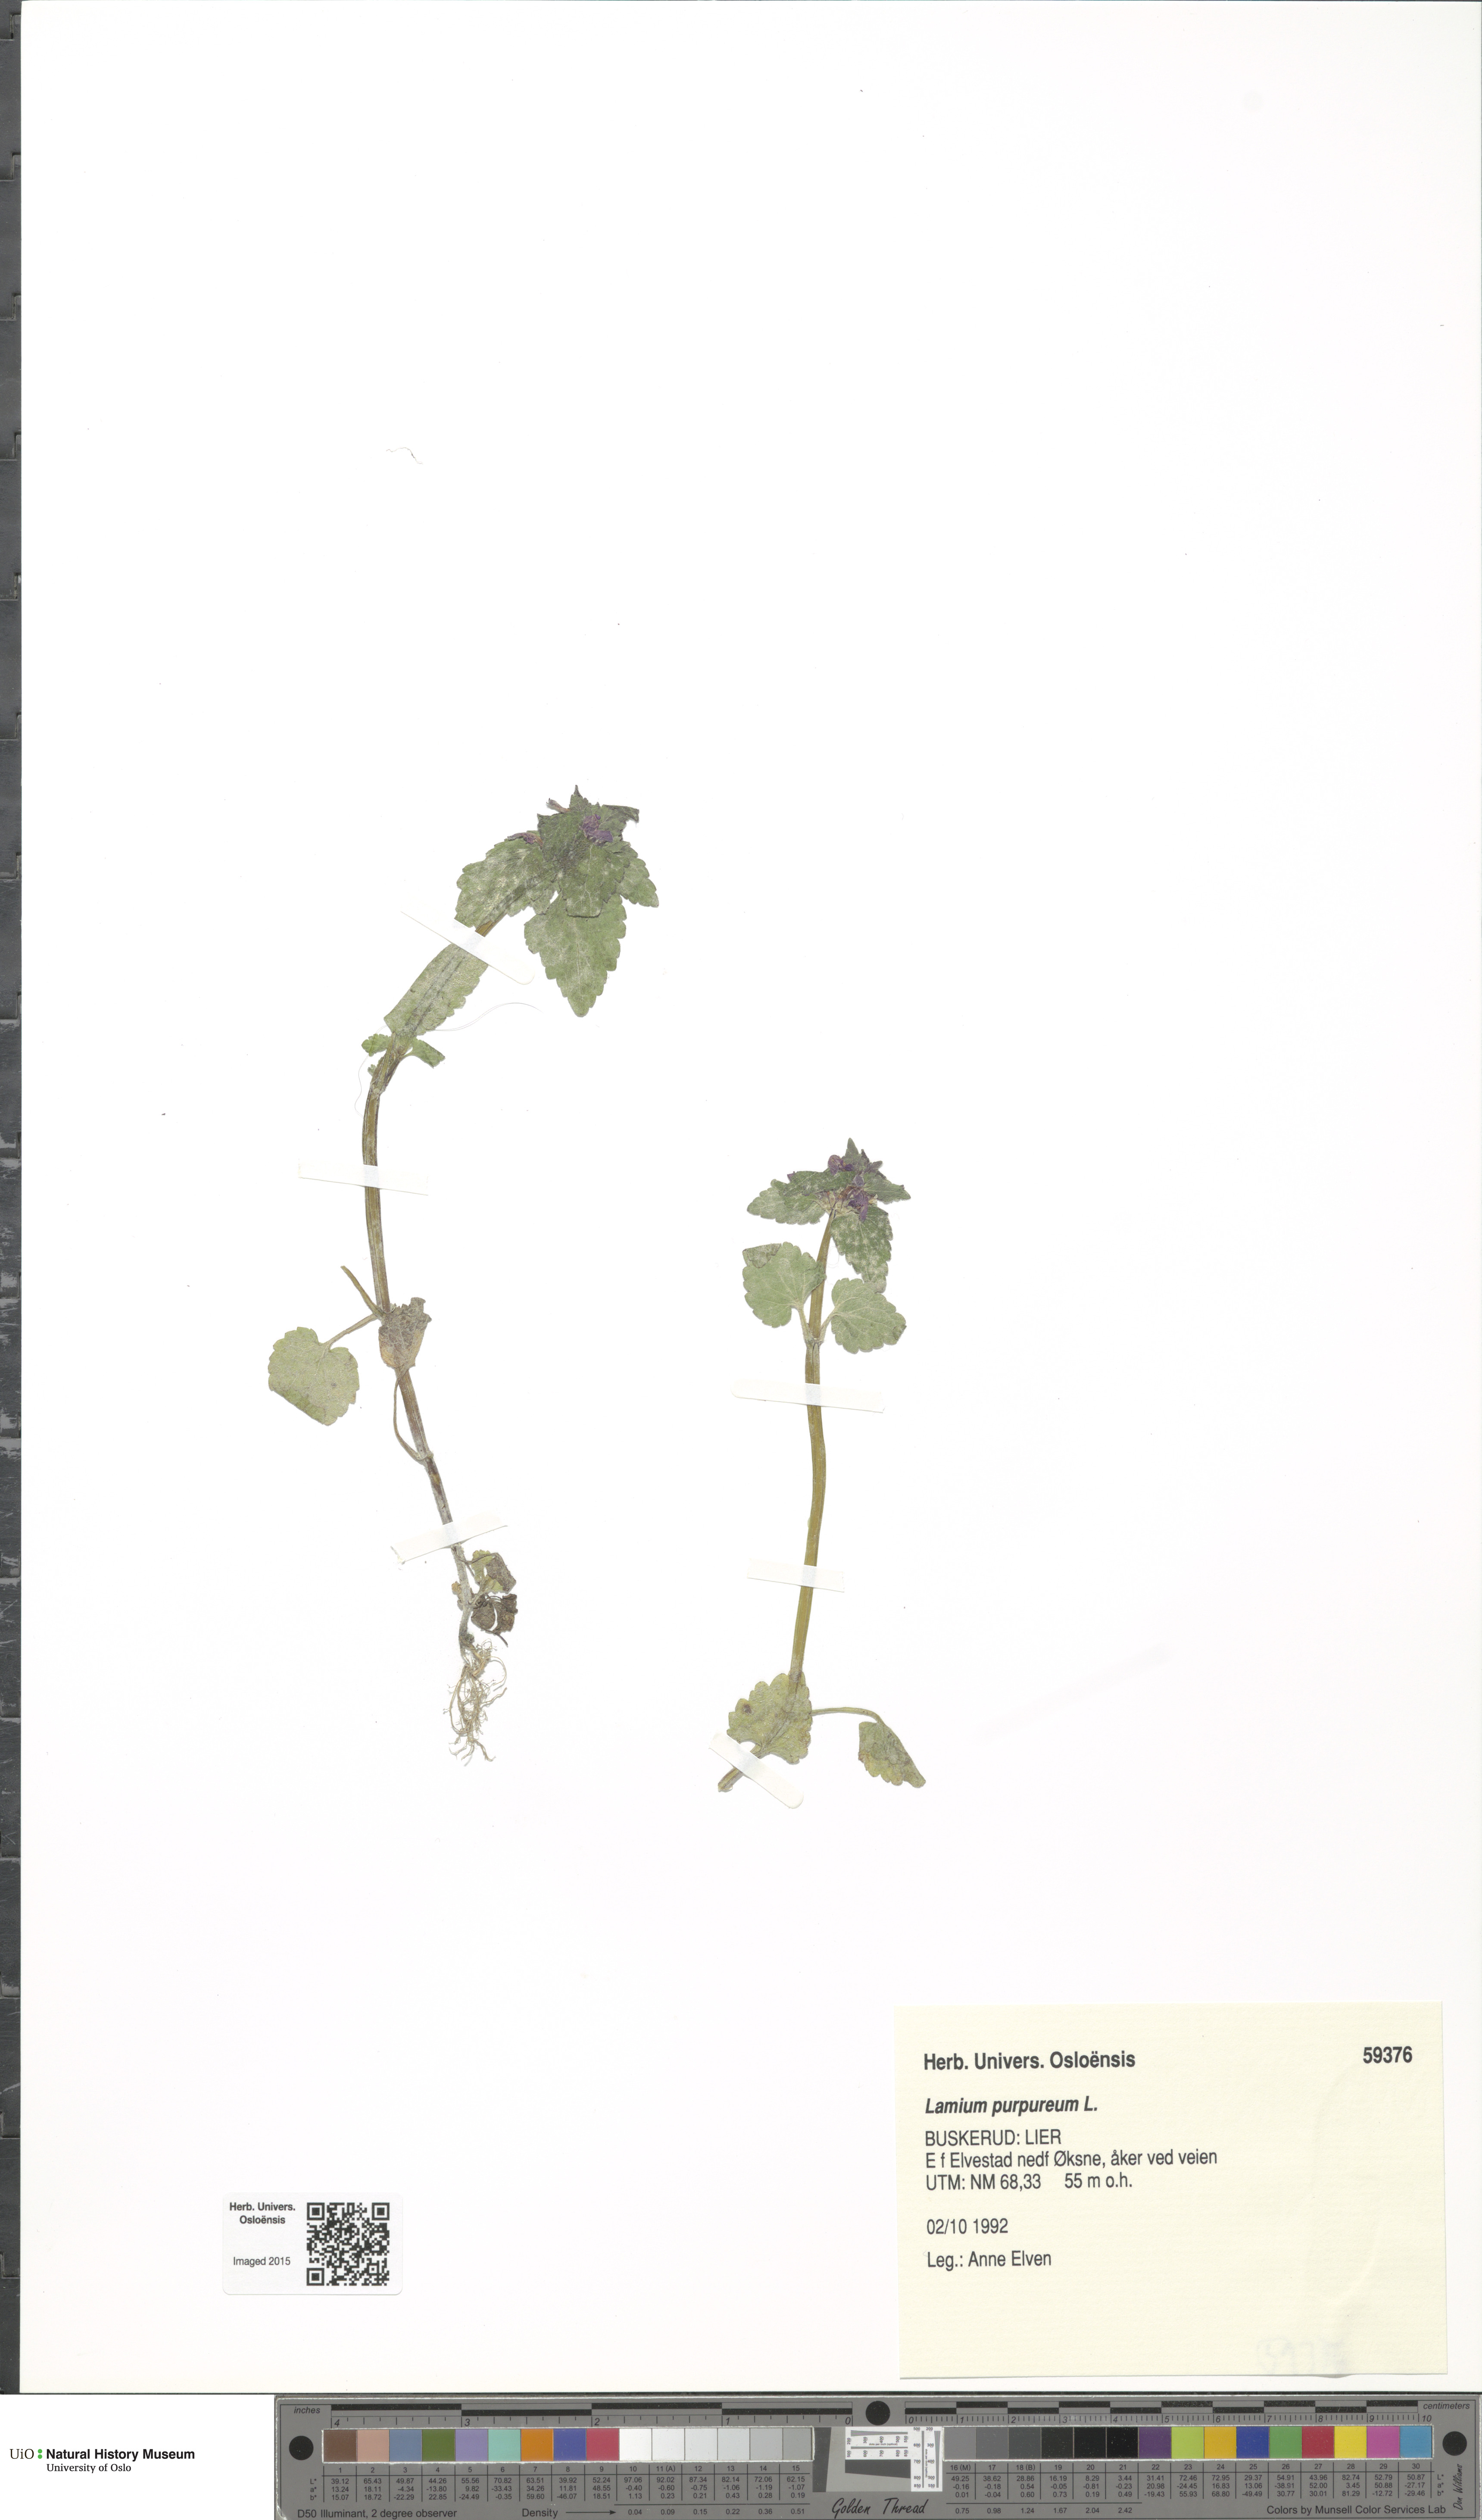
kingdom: Plantae
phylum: Tracheophyta
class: Magnoliopsida
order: Lamiales
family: Lamiaceae
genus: Lamium
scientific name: Lamium purpureum
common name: Red dead-nettle
